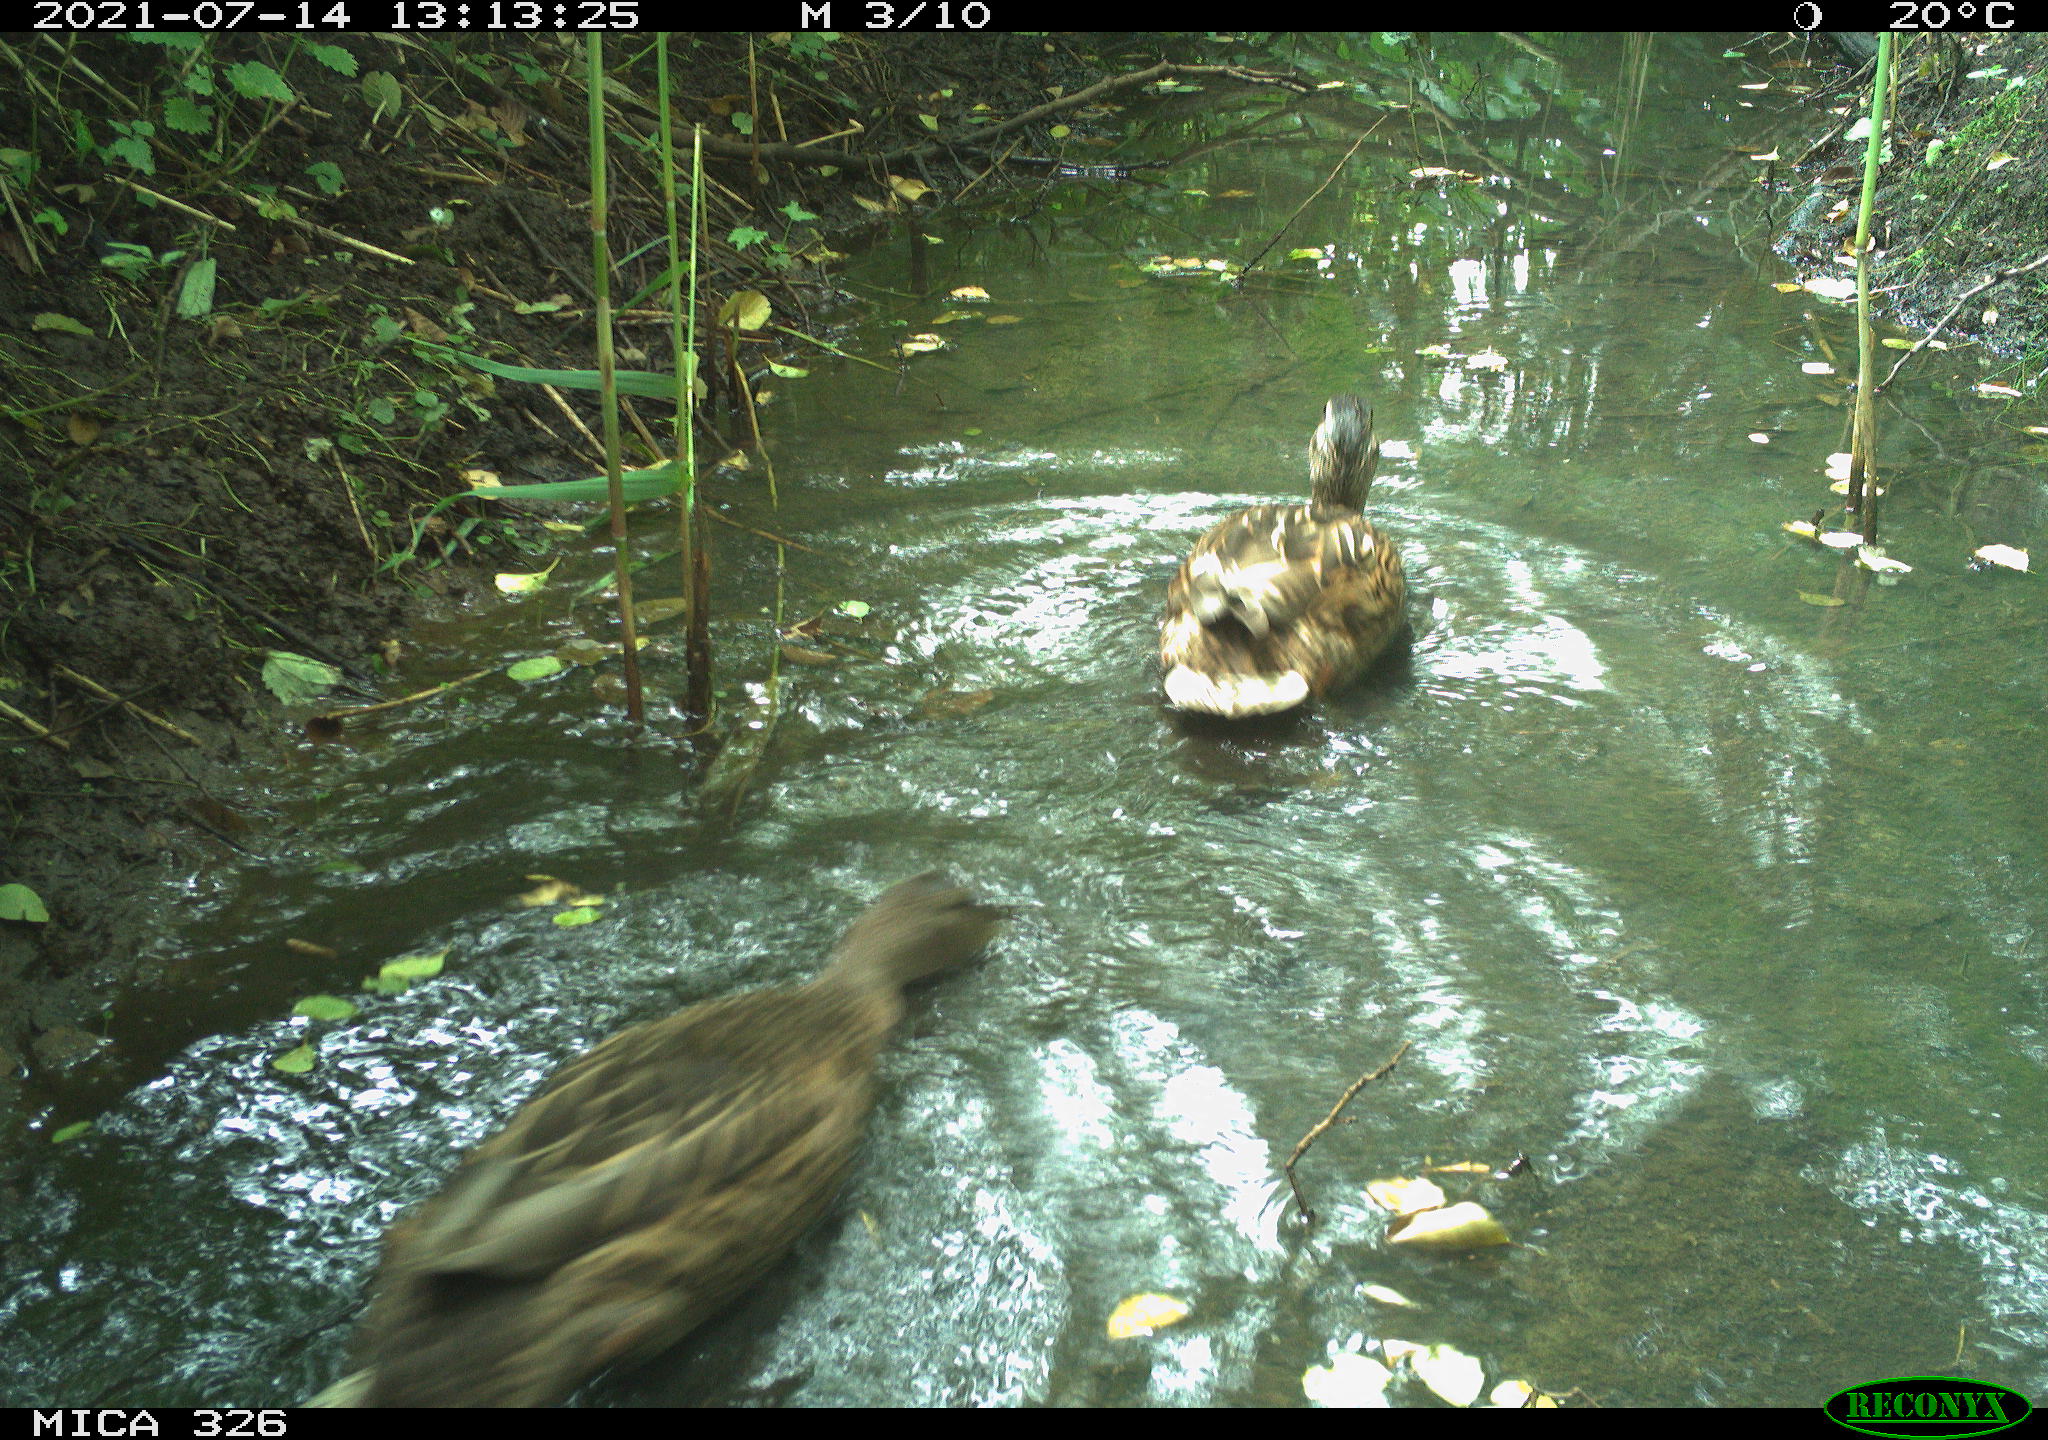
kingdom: Animalia
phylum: Chordata
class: Aves
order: Anseriformes
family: Anatidae
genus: Anas
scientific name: Anas platyrhynchos
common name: Mallard
